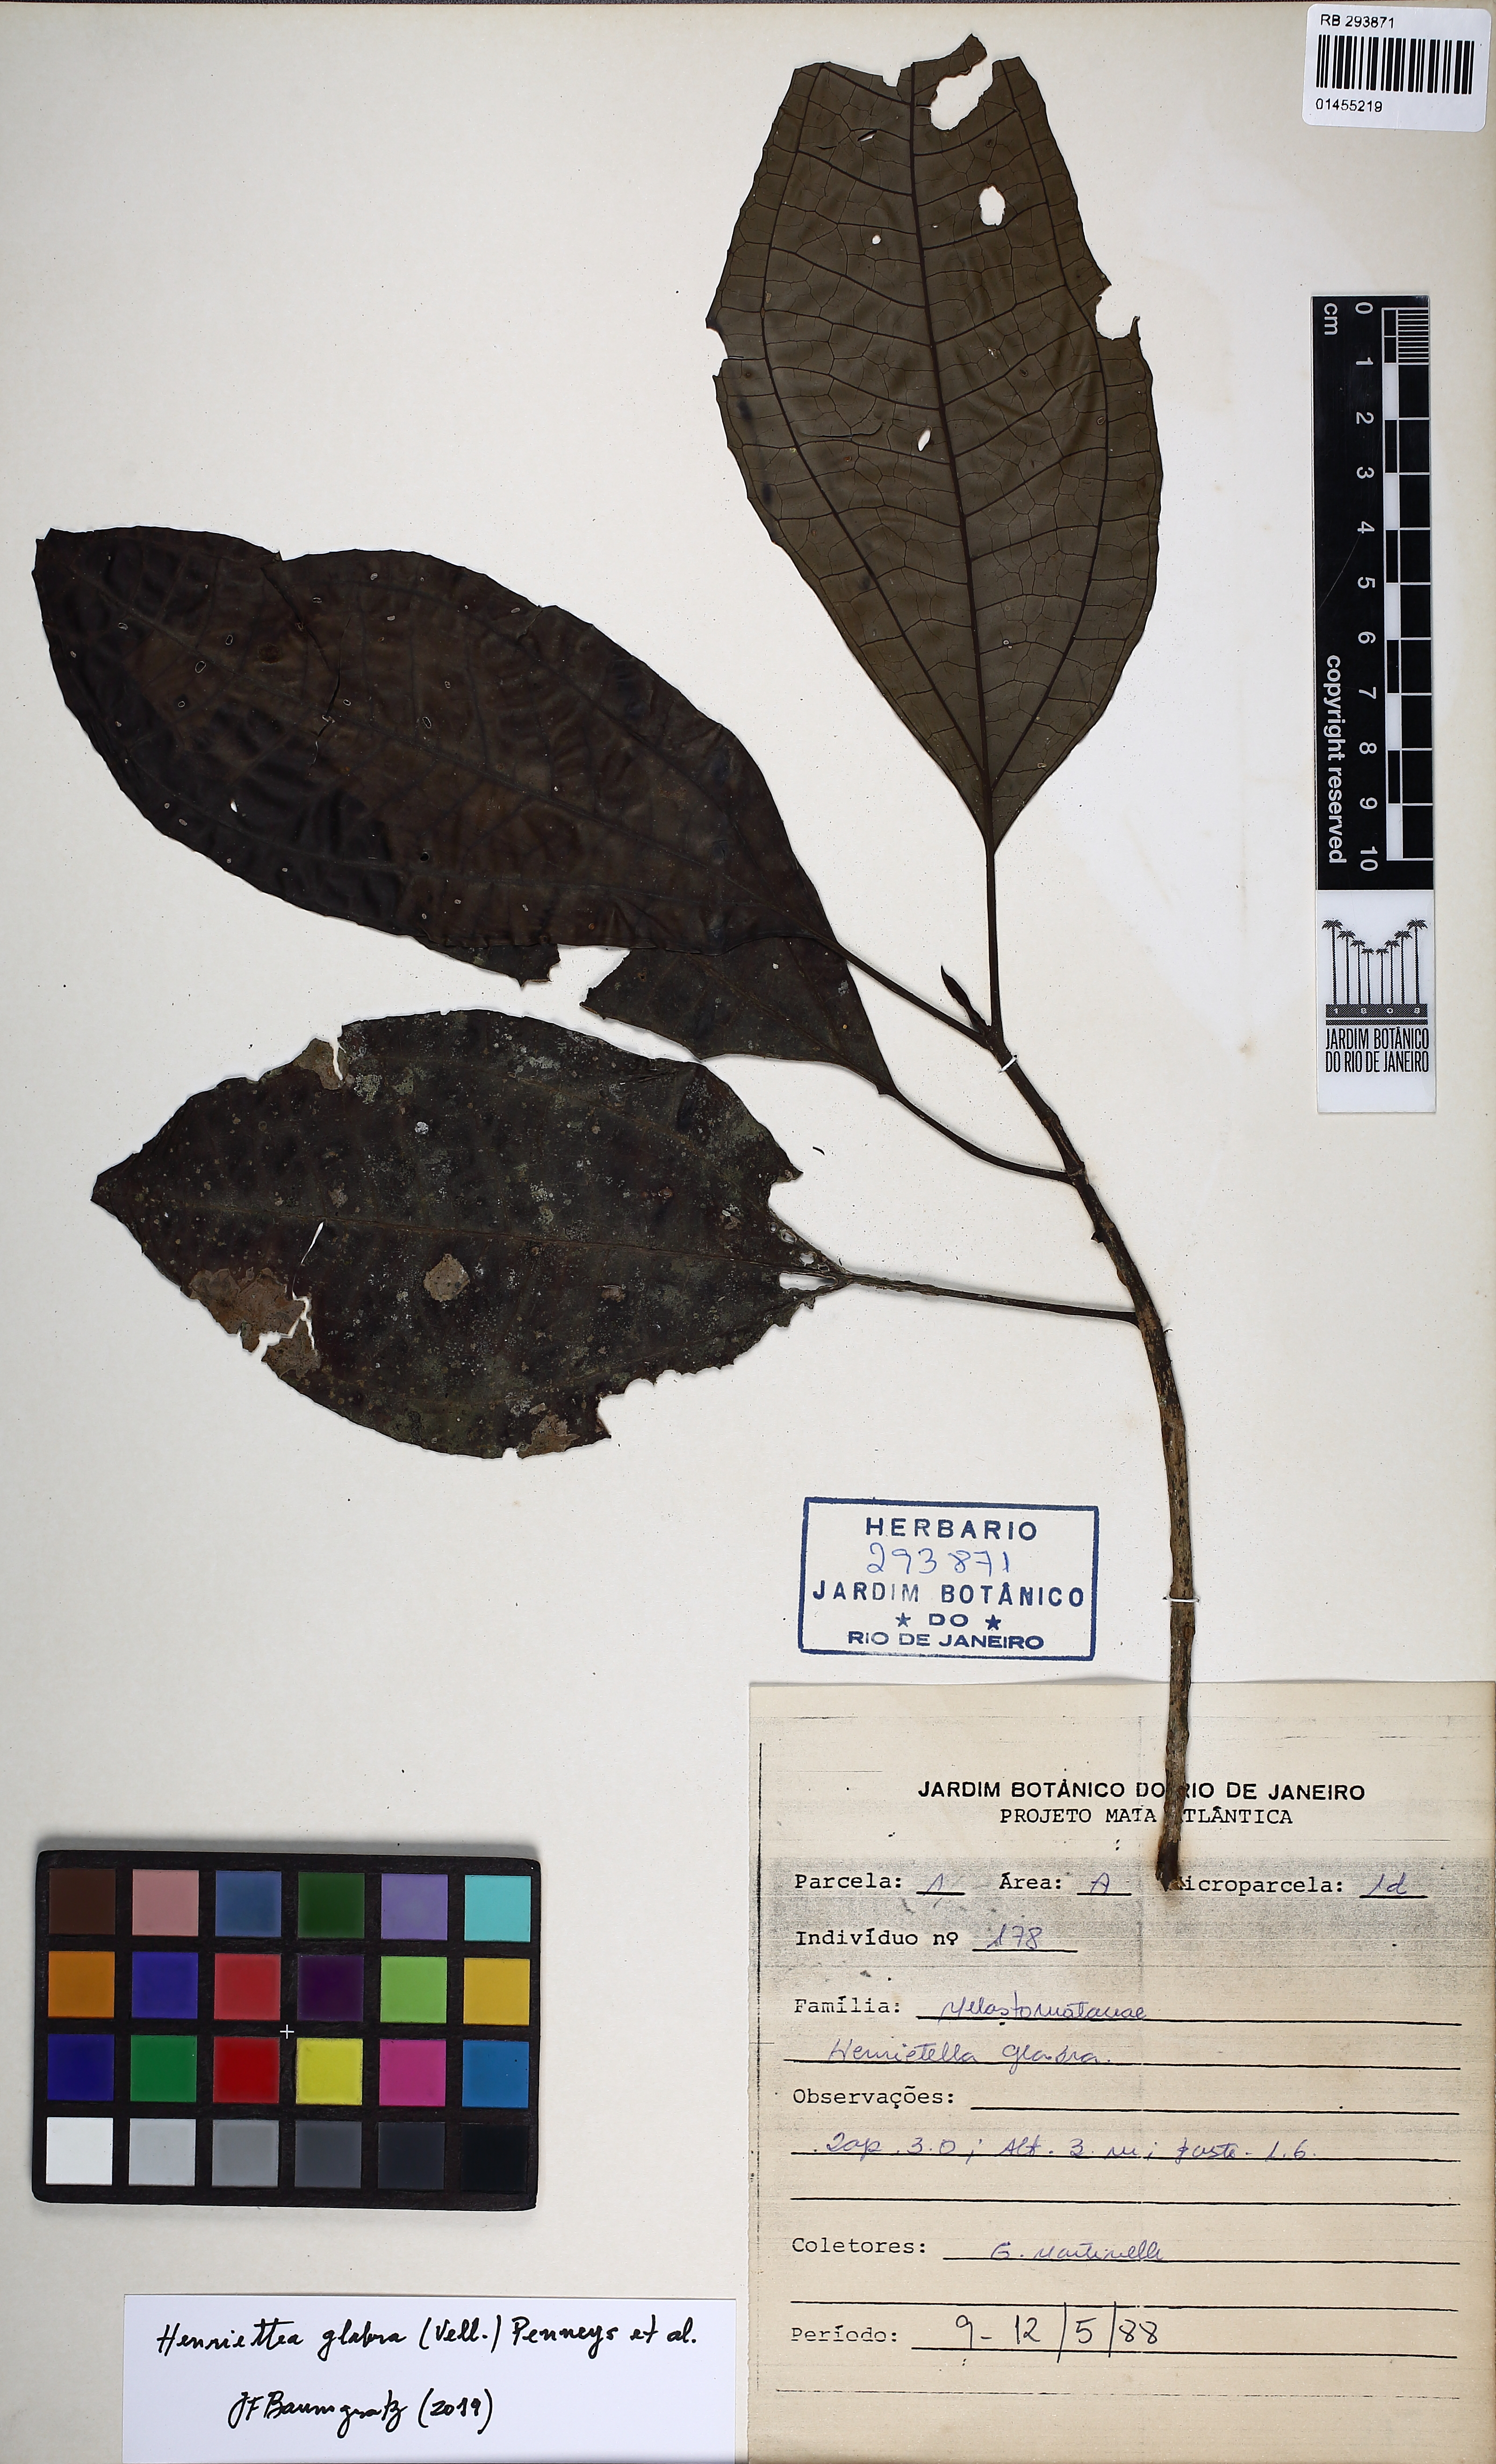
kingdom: Plantae
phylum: Tracheophyta
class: Magnoliopsida
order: Myrtales
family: Melastomataceae
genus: Henriettea
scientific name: Henriettea glabra
